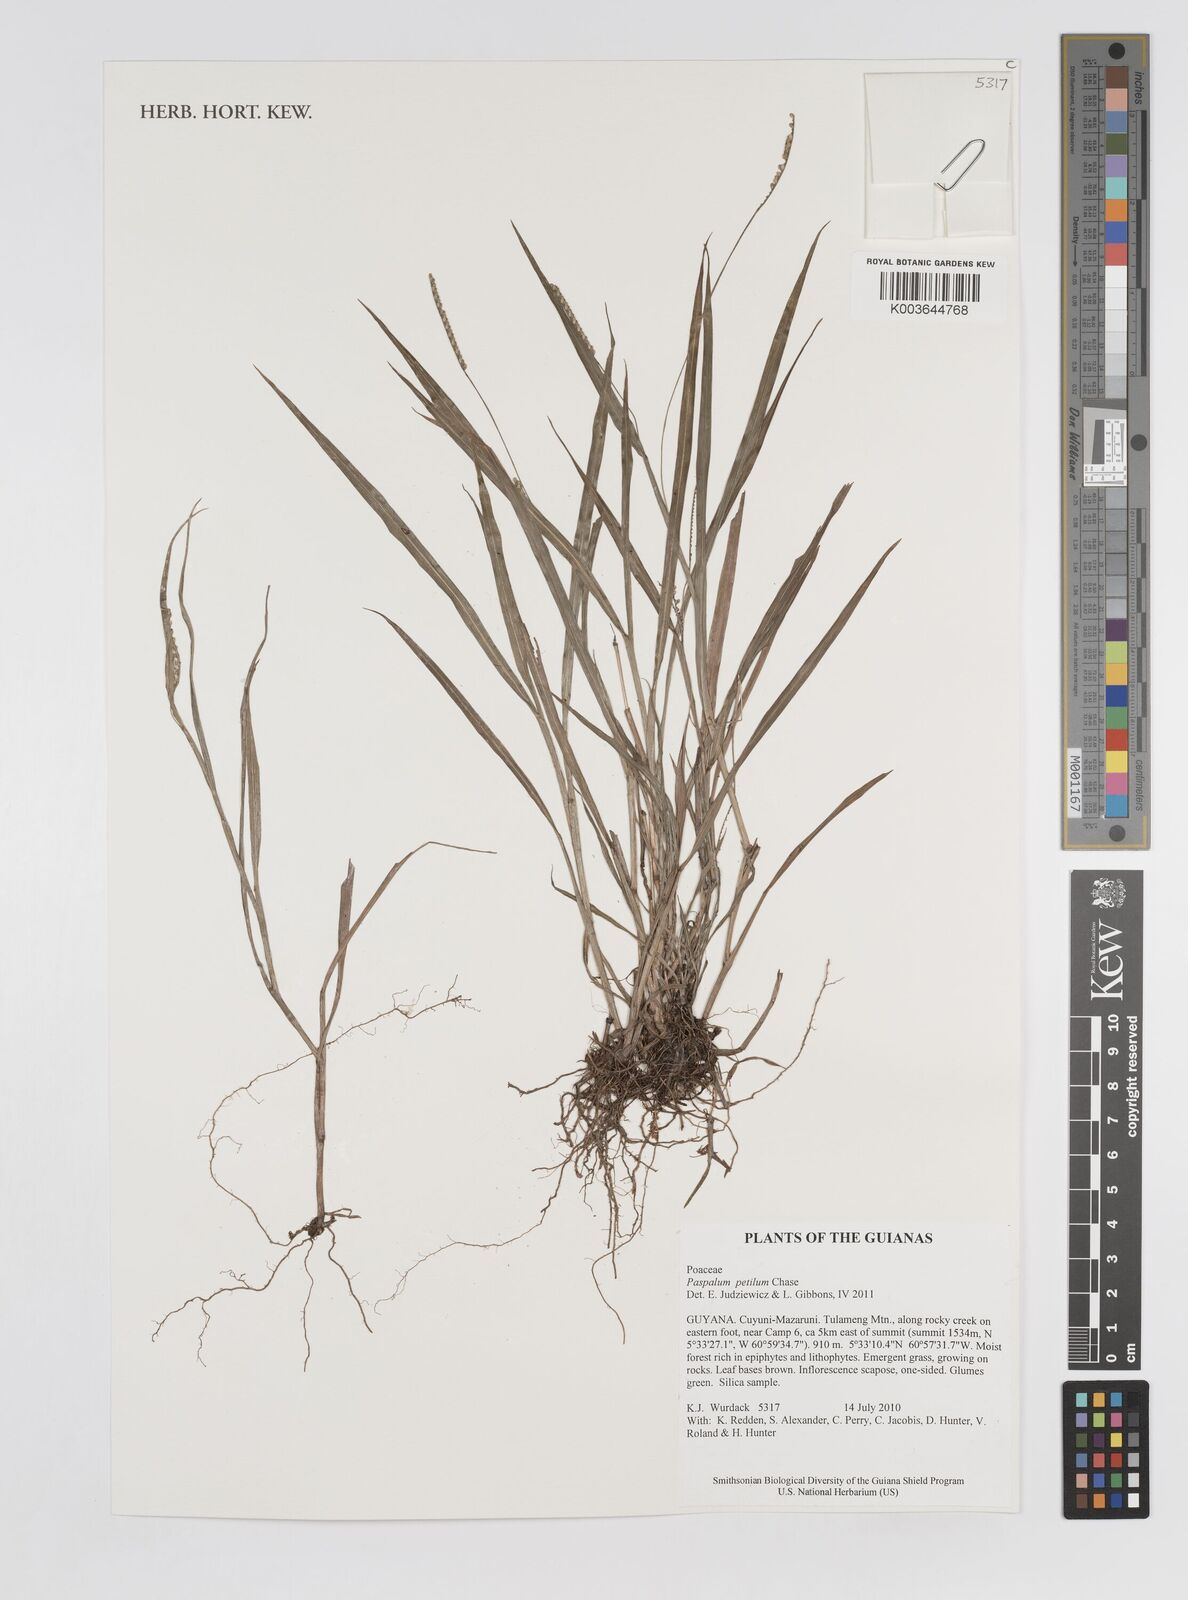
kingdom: Plantae
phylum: Tracheophyta
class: Liliopsida
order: Poales
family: Poaceae
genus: Paspalum
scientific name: Paspalum petilum
